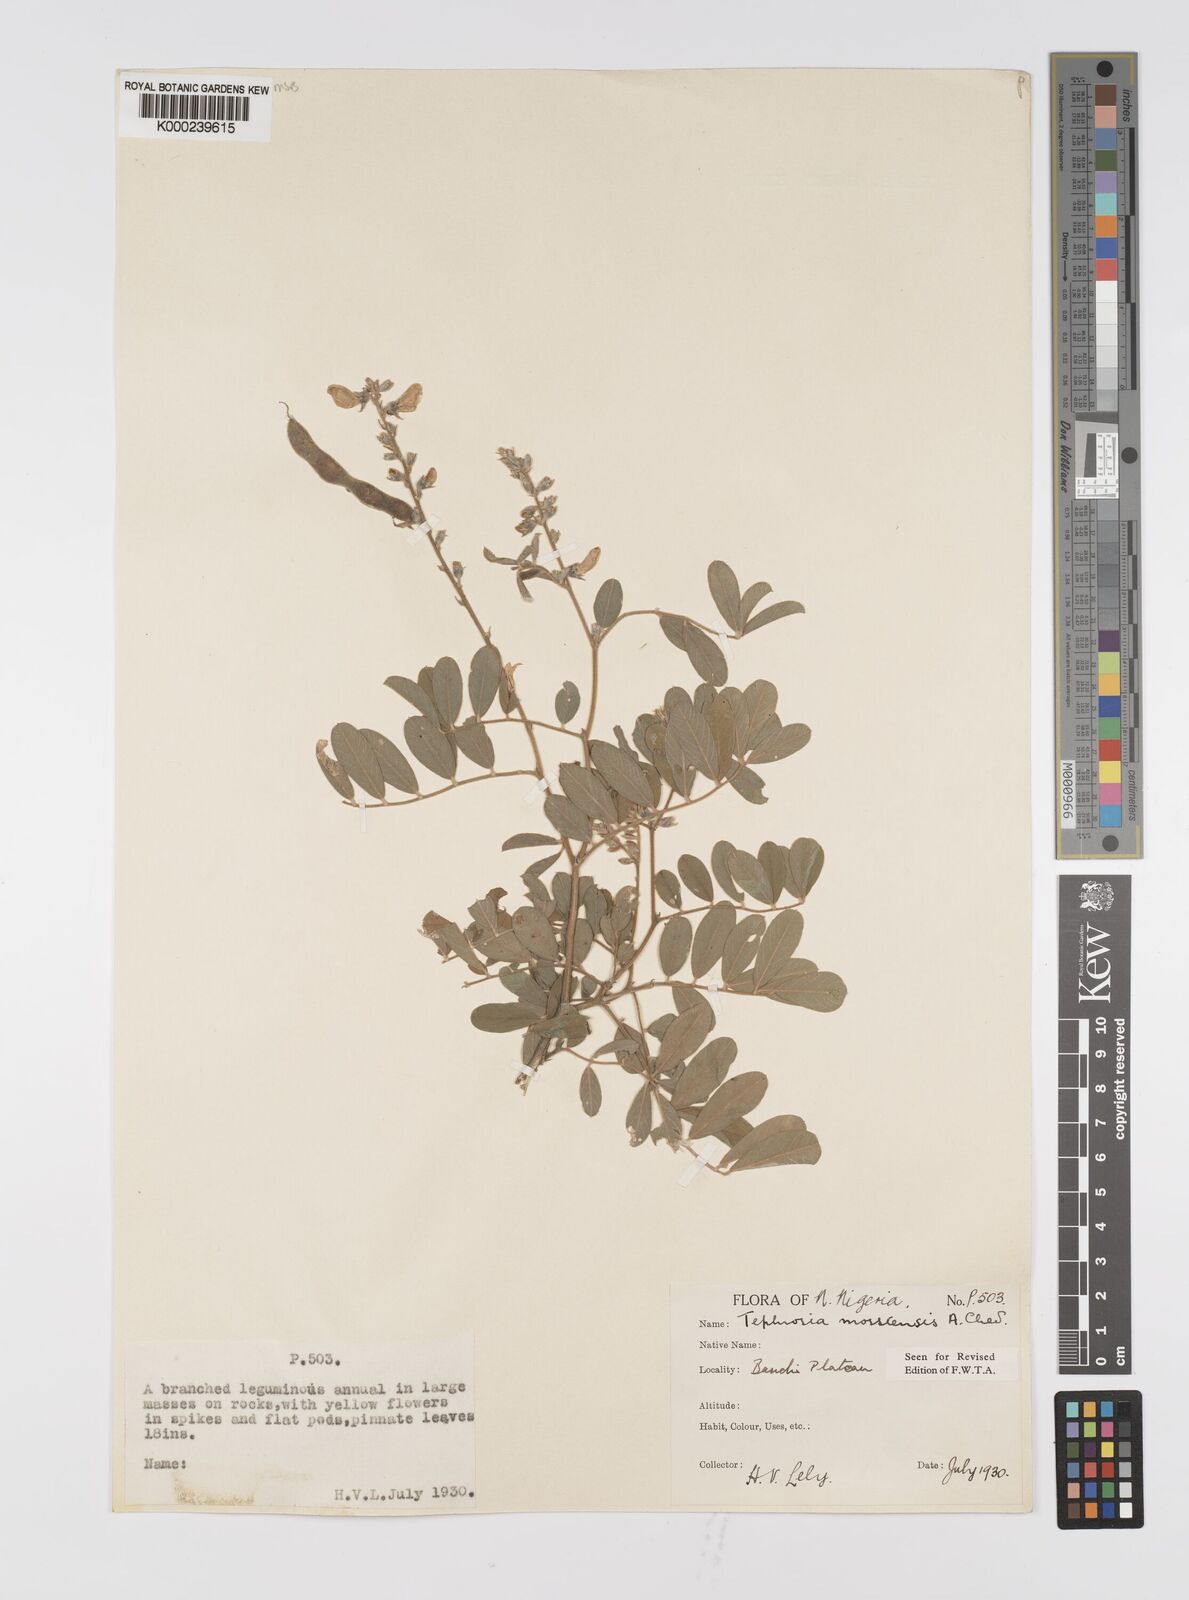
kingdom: Plantae
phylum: Tracheophyta
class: Magnoliopsida
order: Fabales
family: Fabaceae
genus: Tephrosia
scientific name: Tephrosia mossiensis
